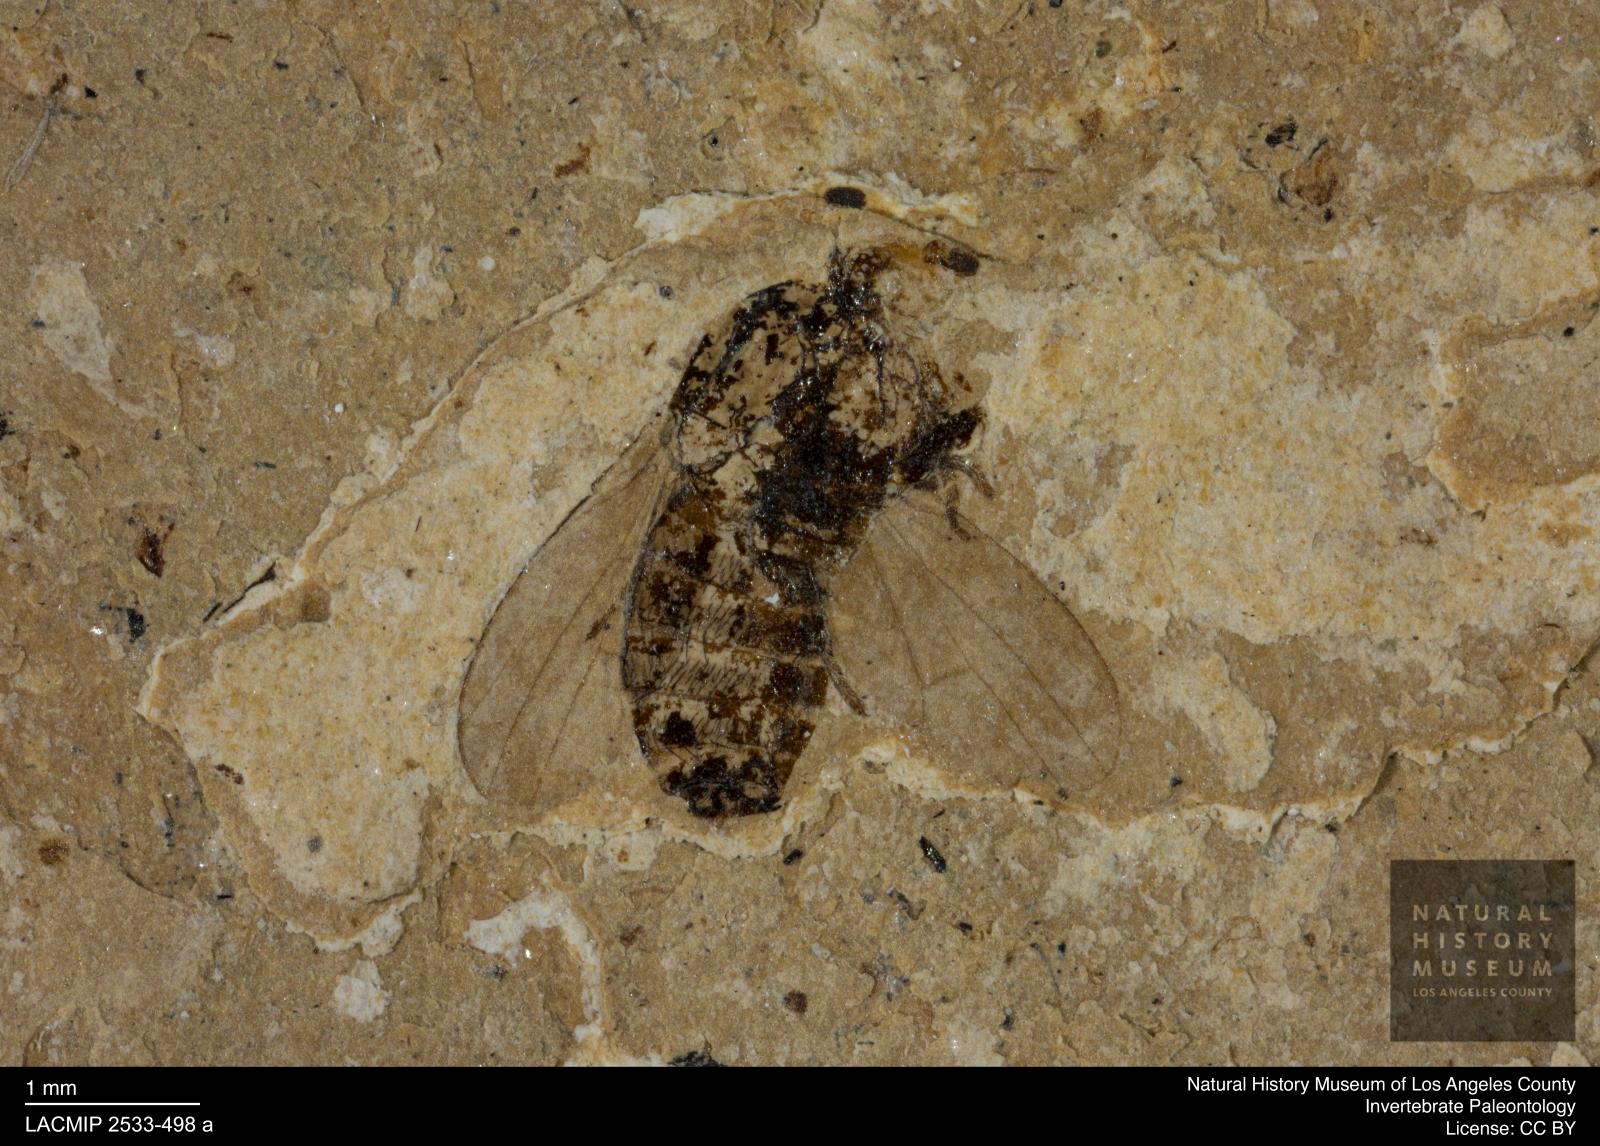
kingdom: Animalia
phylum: Arthropoda
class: Insecta
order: Diptera
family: Dryomyzidae
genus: Dryomyza
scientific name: Dryomyza pelidua
